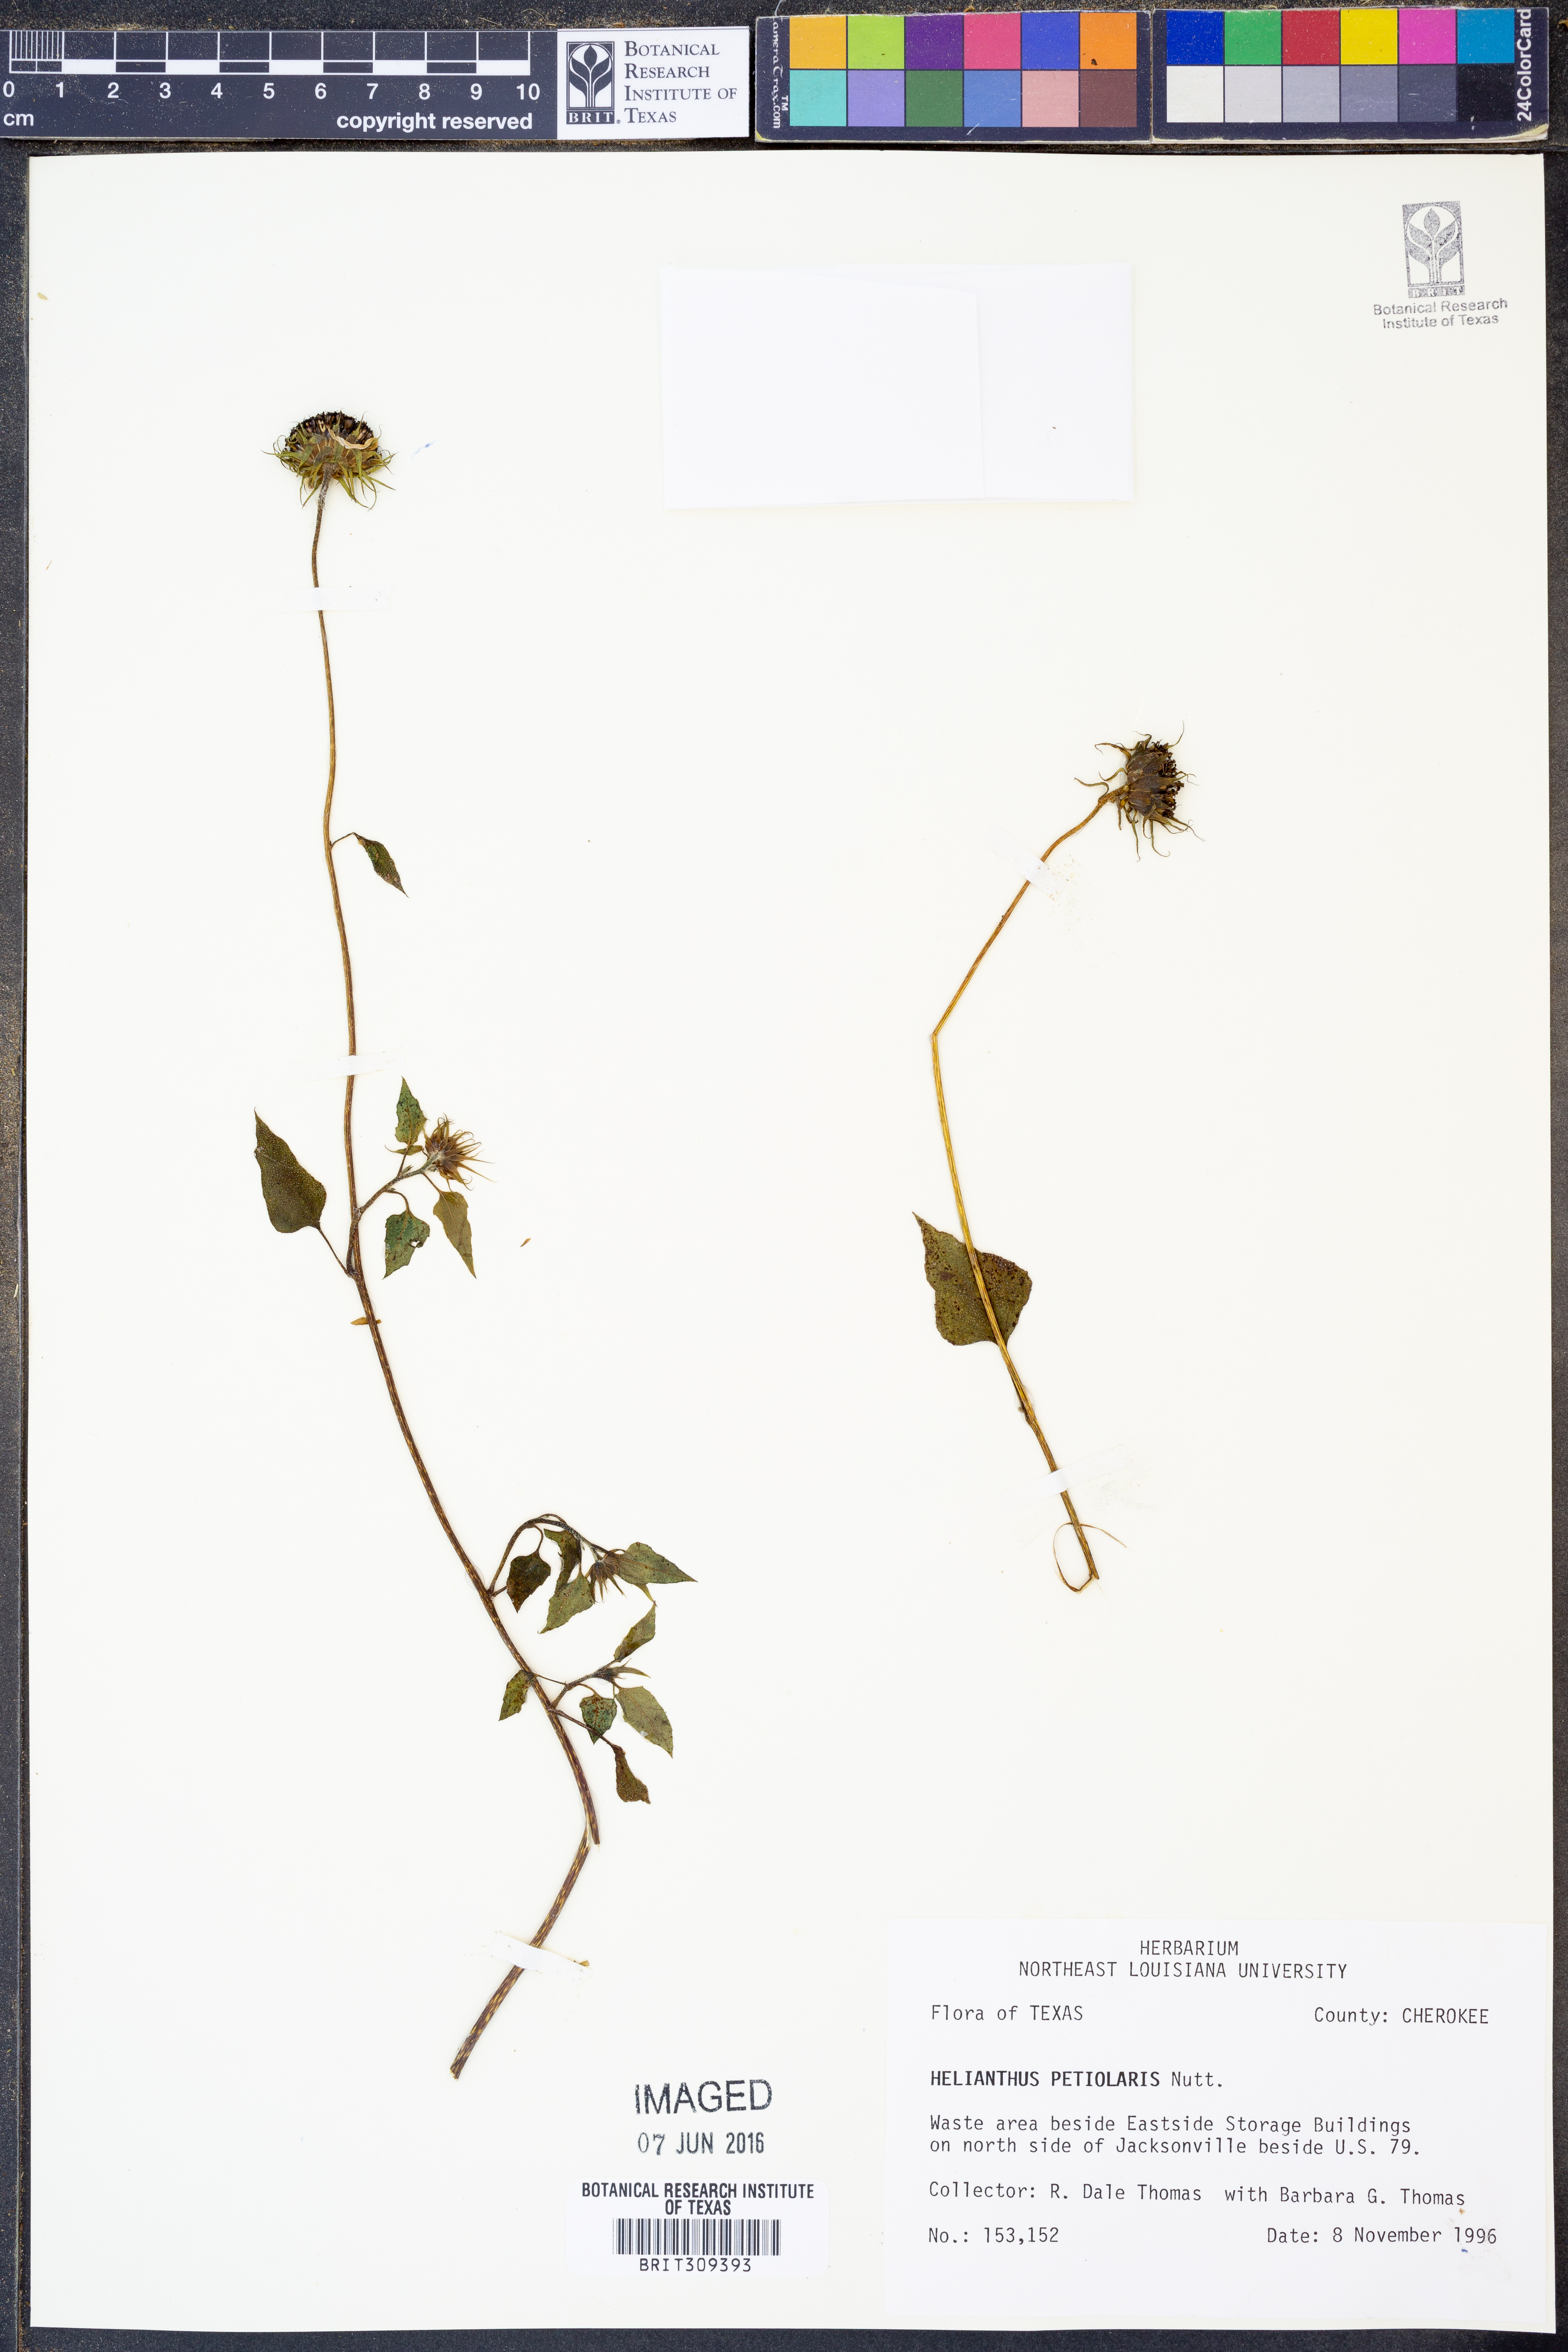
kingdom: Plantae
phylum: Tracheophyta
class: Magnoliopsida
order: Asterales
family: Asteraceae
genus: Helianthus
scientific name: Helianthus petiolaris
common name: Lesser sunflower
